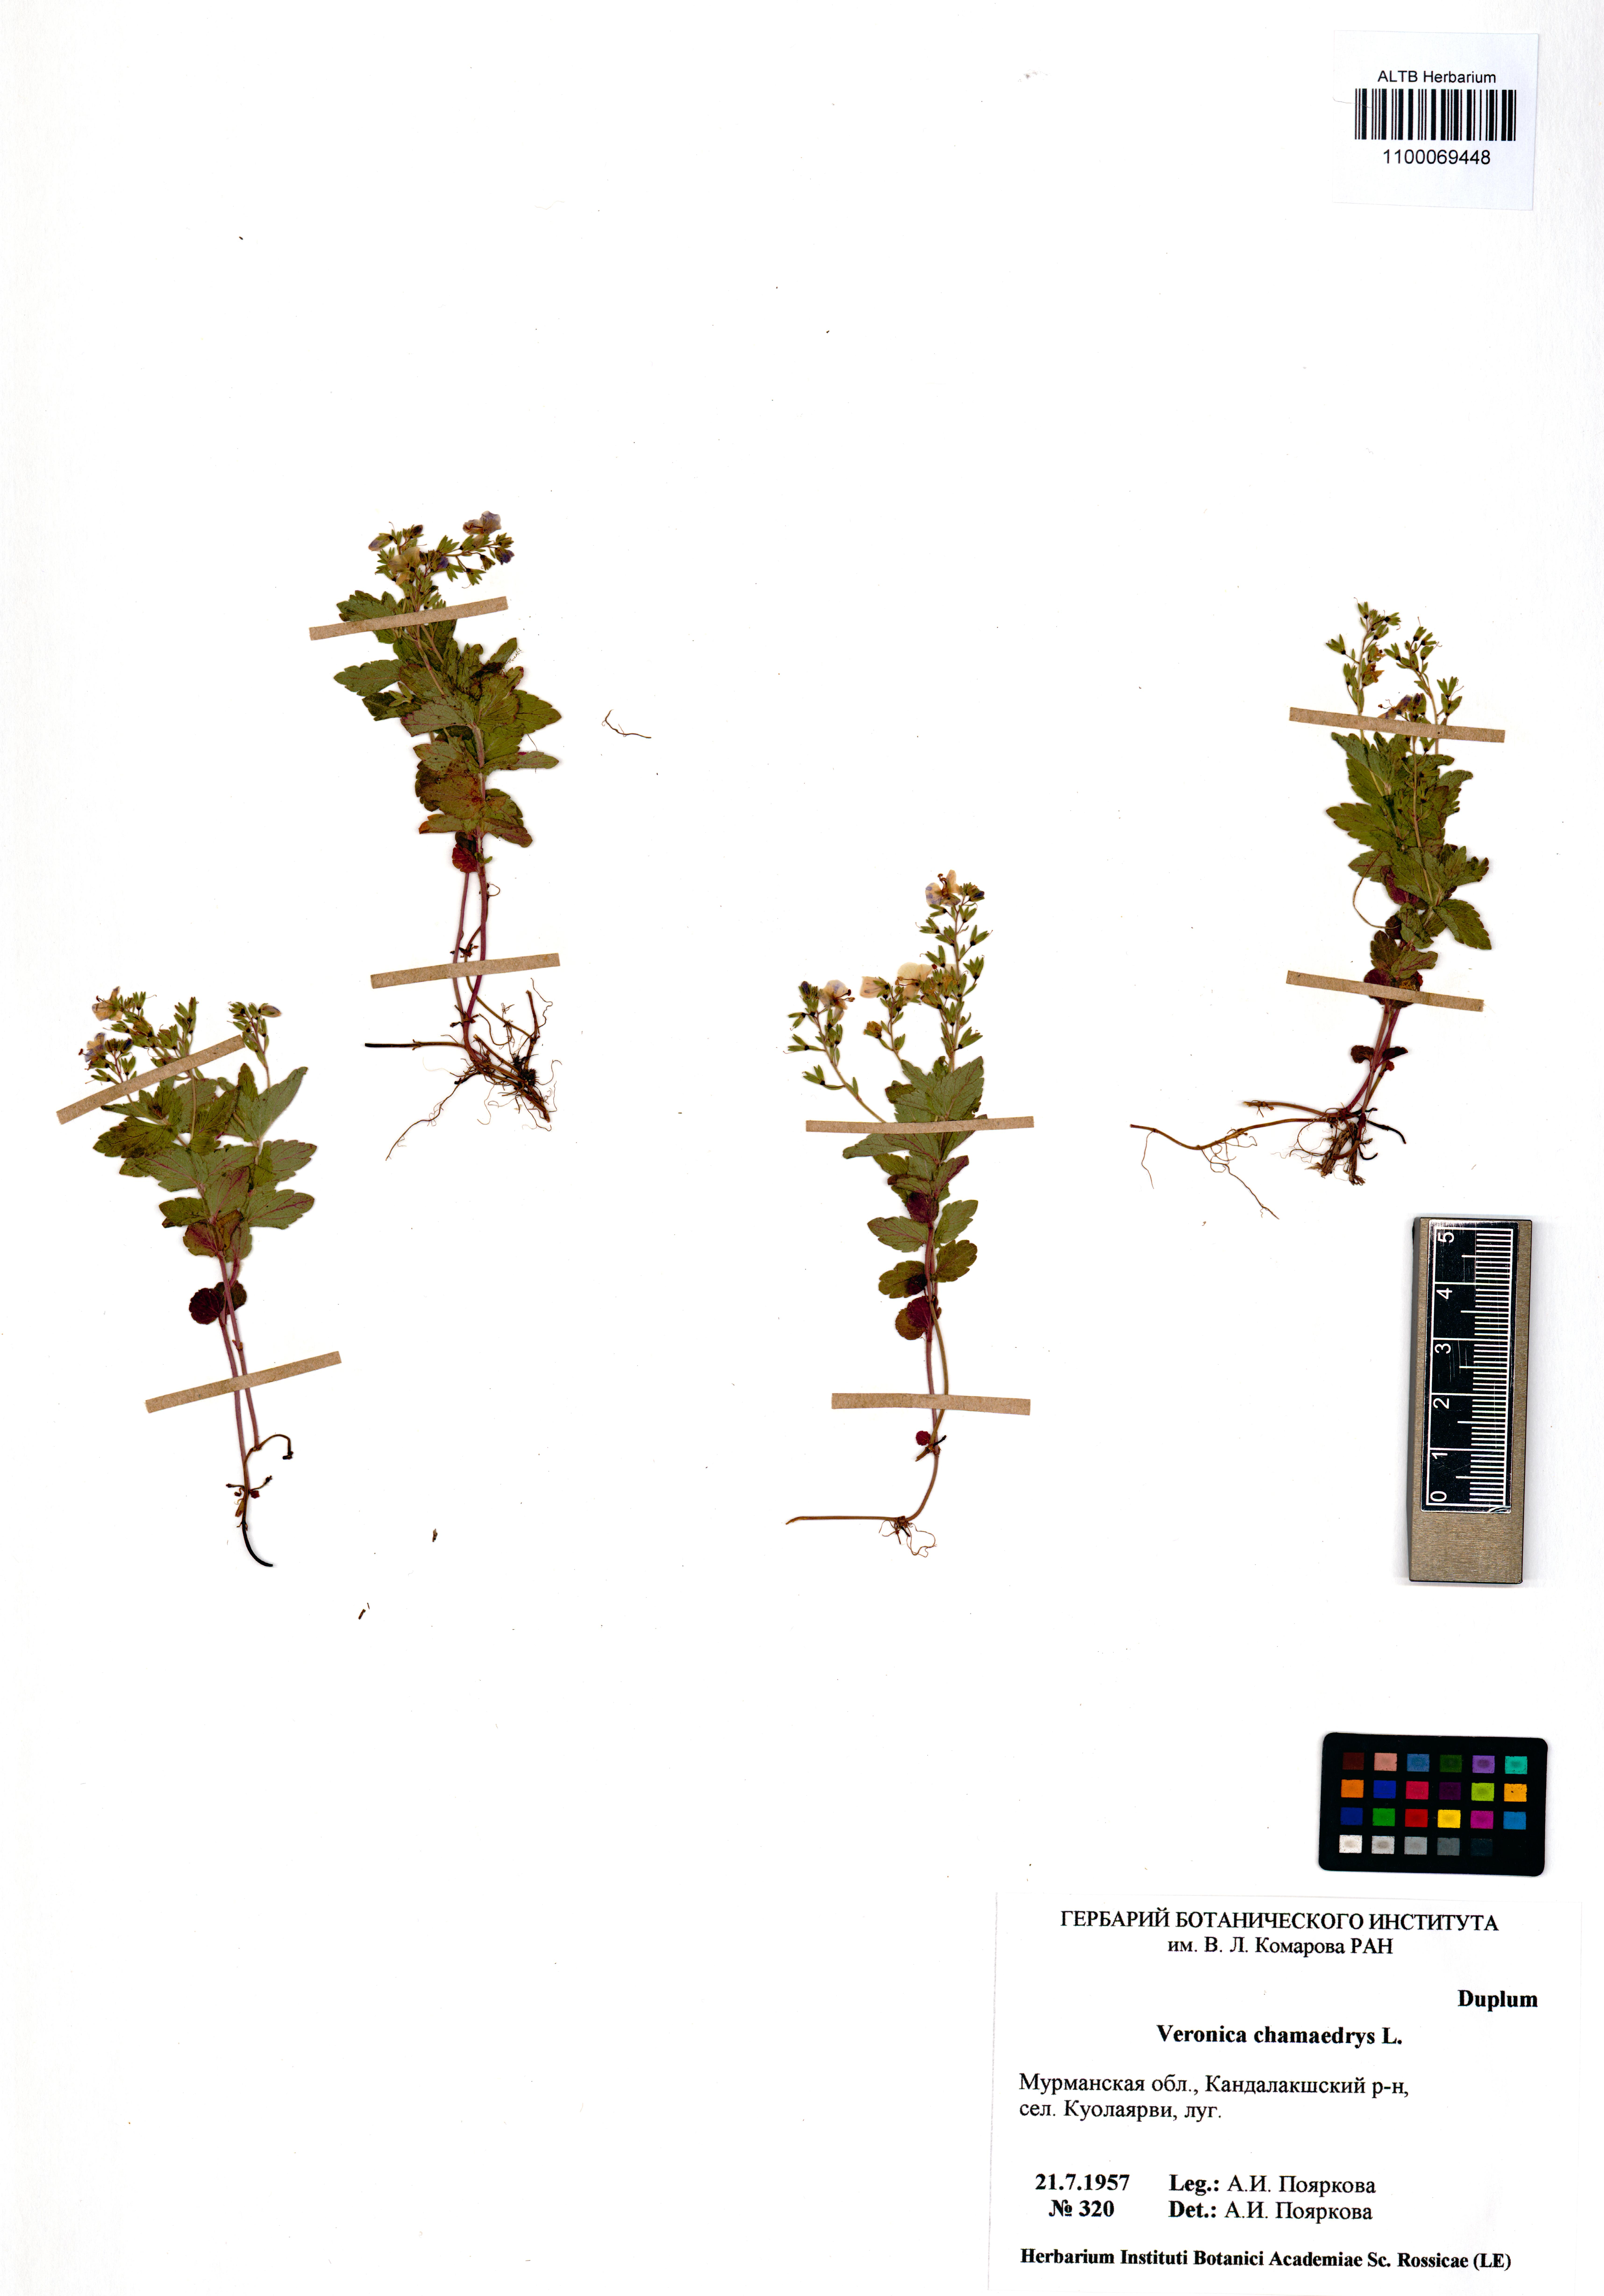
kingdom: Plantae
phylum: Tracheophyta
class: Magnoliopsida
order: Lamiales
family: Plantaginaceae
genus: Veronica
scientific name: Veronica chamaedrys
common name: Germander speedwell
